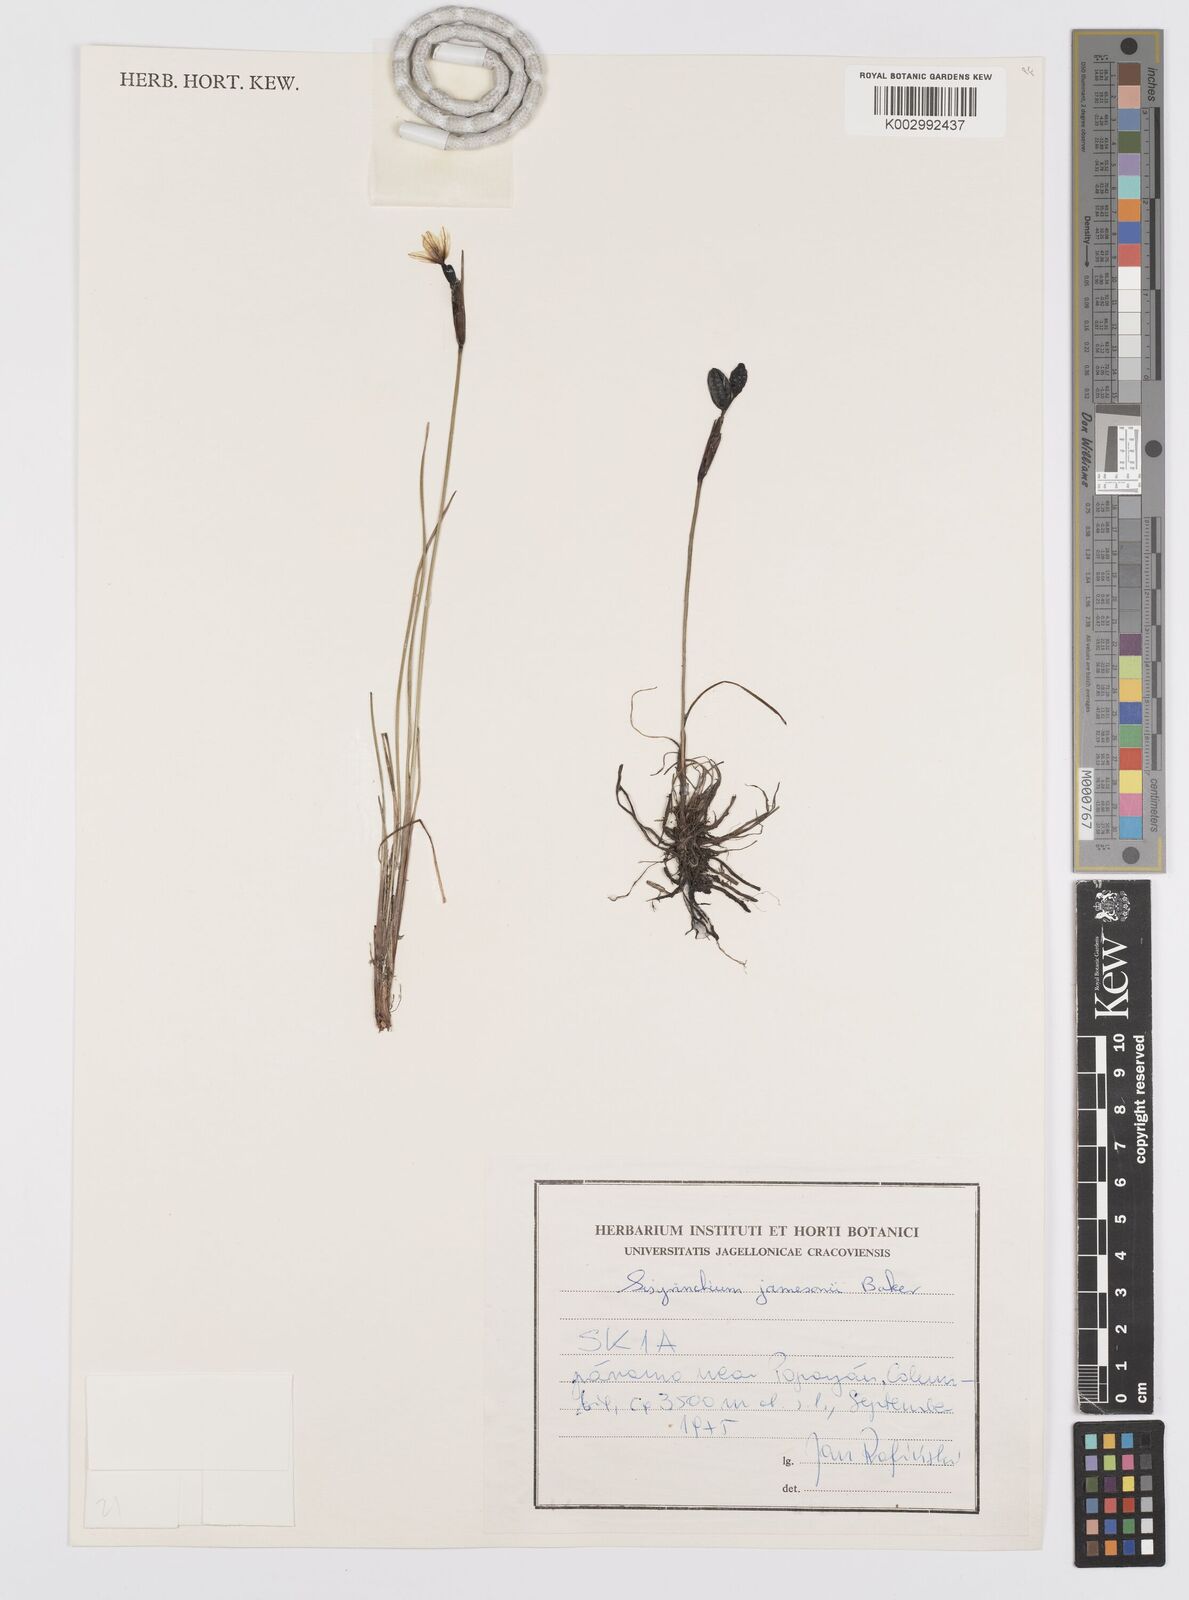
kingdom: Plantae
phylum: Tracheophyta
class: Liliopsida
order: Asparagales
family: Iridaceae
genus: Sisyrinchium
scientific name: Sisyrinchium jamesonii
